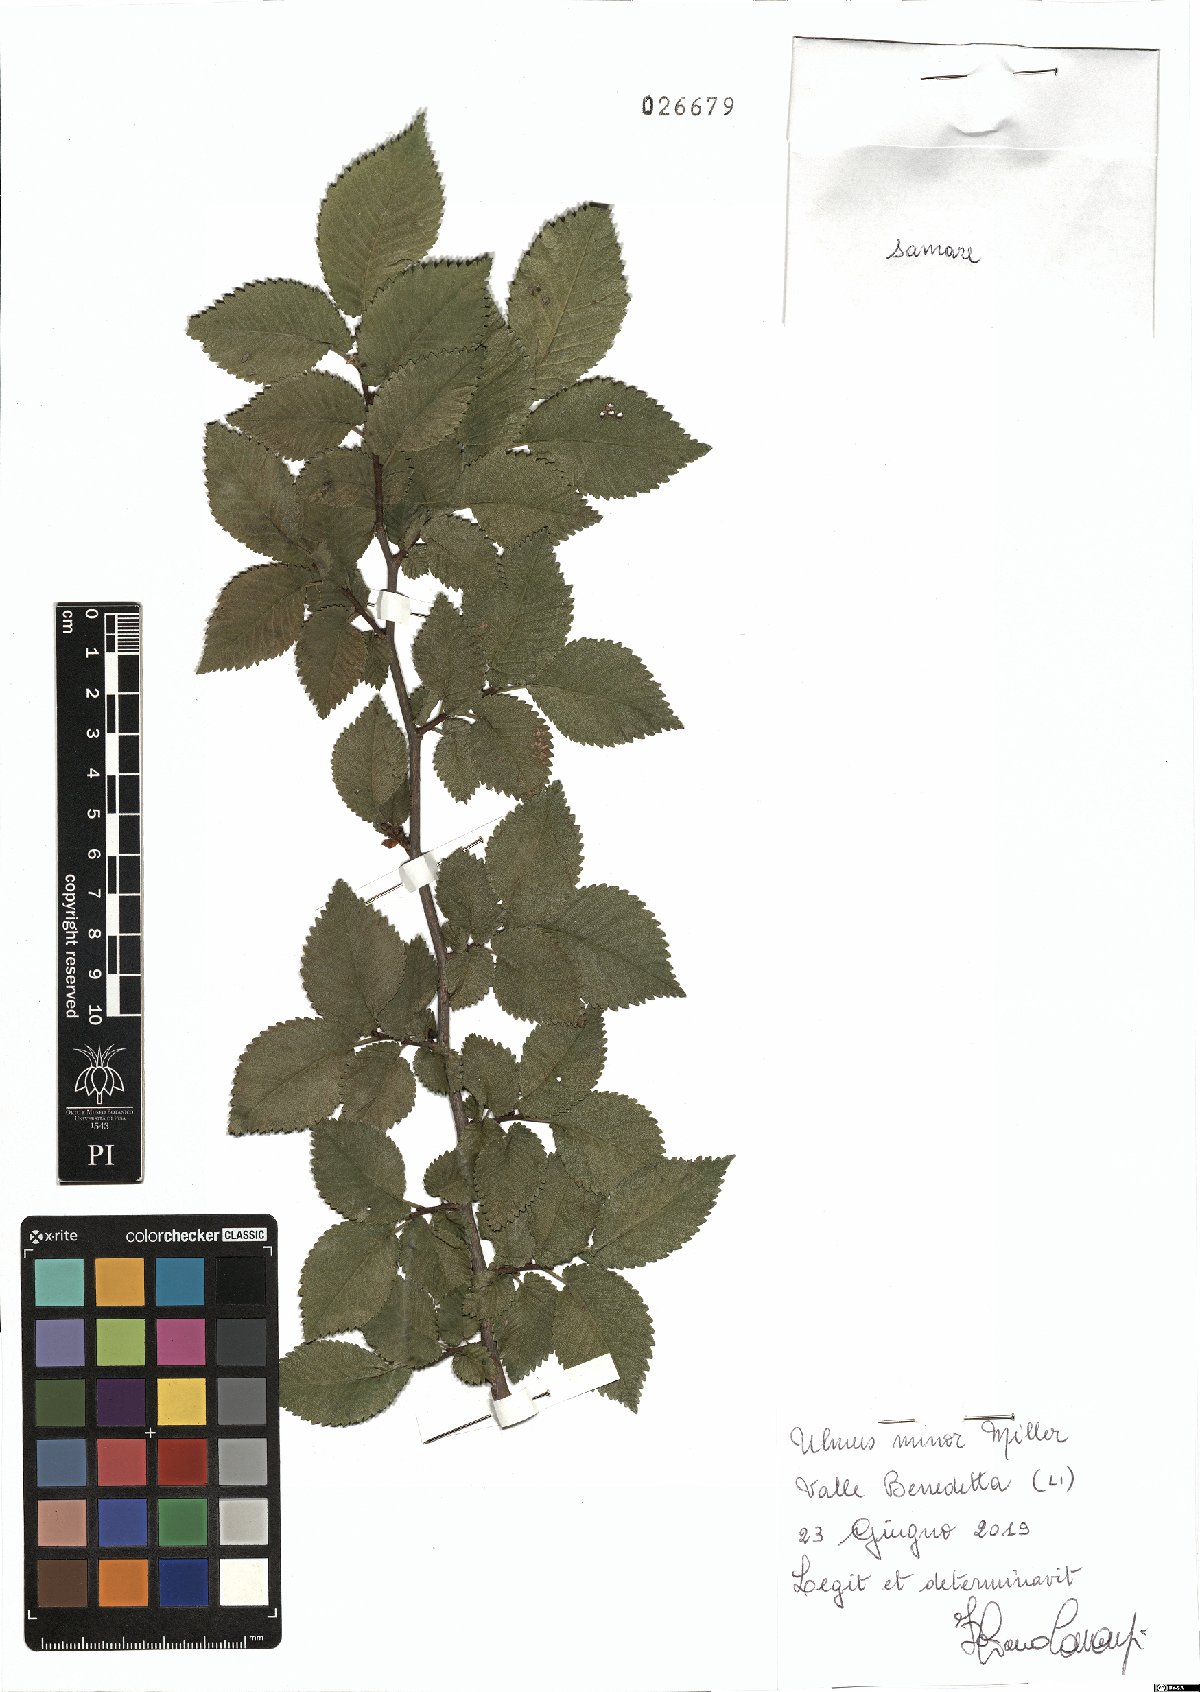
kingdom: Plantae
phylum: Tracheophyta
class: Magnoliopsida
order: Rosales
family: Ulmaceae
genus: Ulmus
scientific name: Ulmus minor
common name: Small-leaved elm
